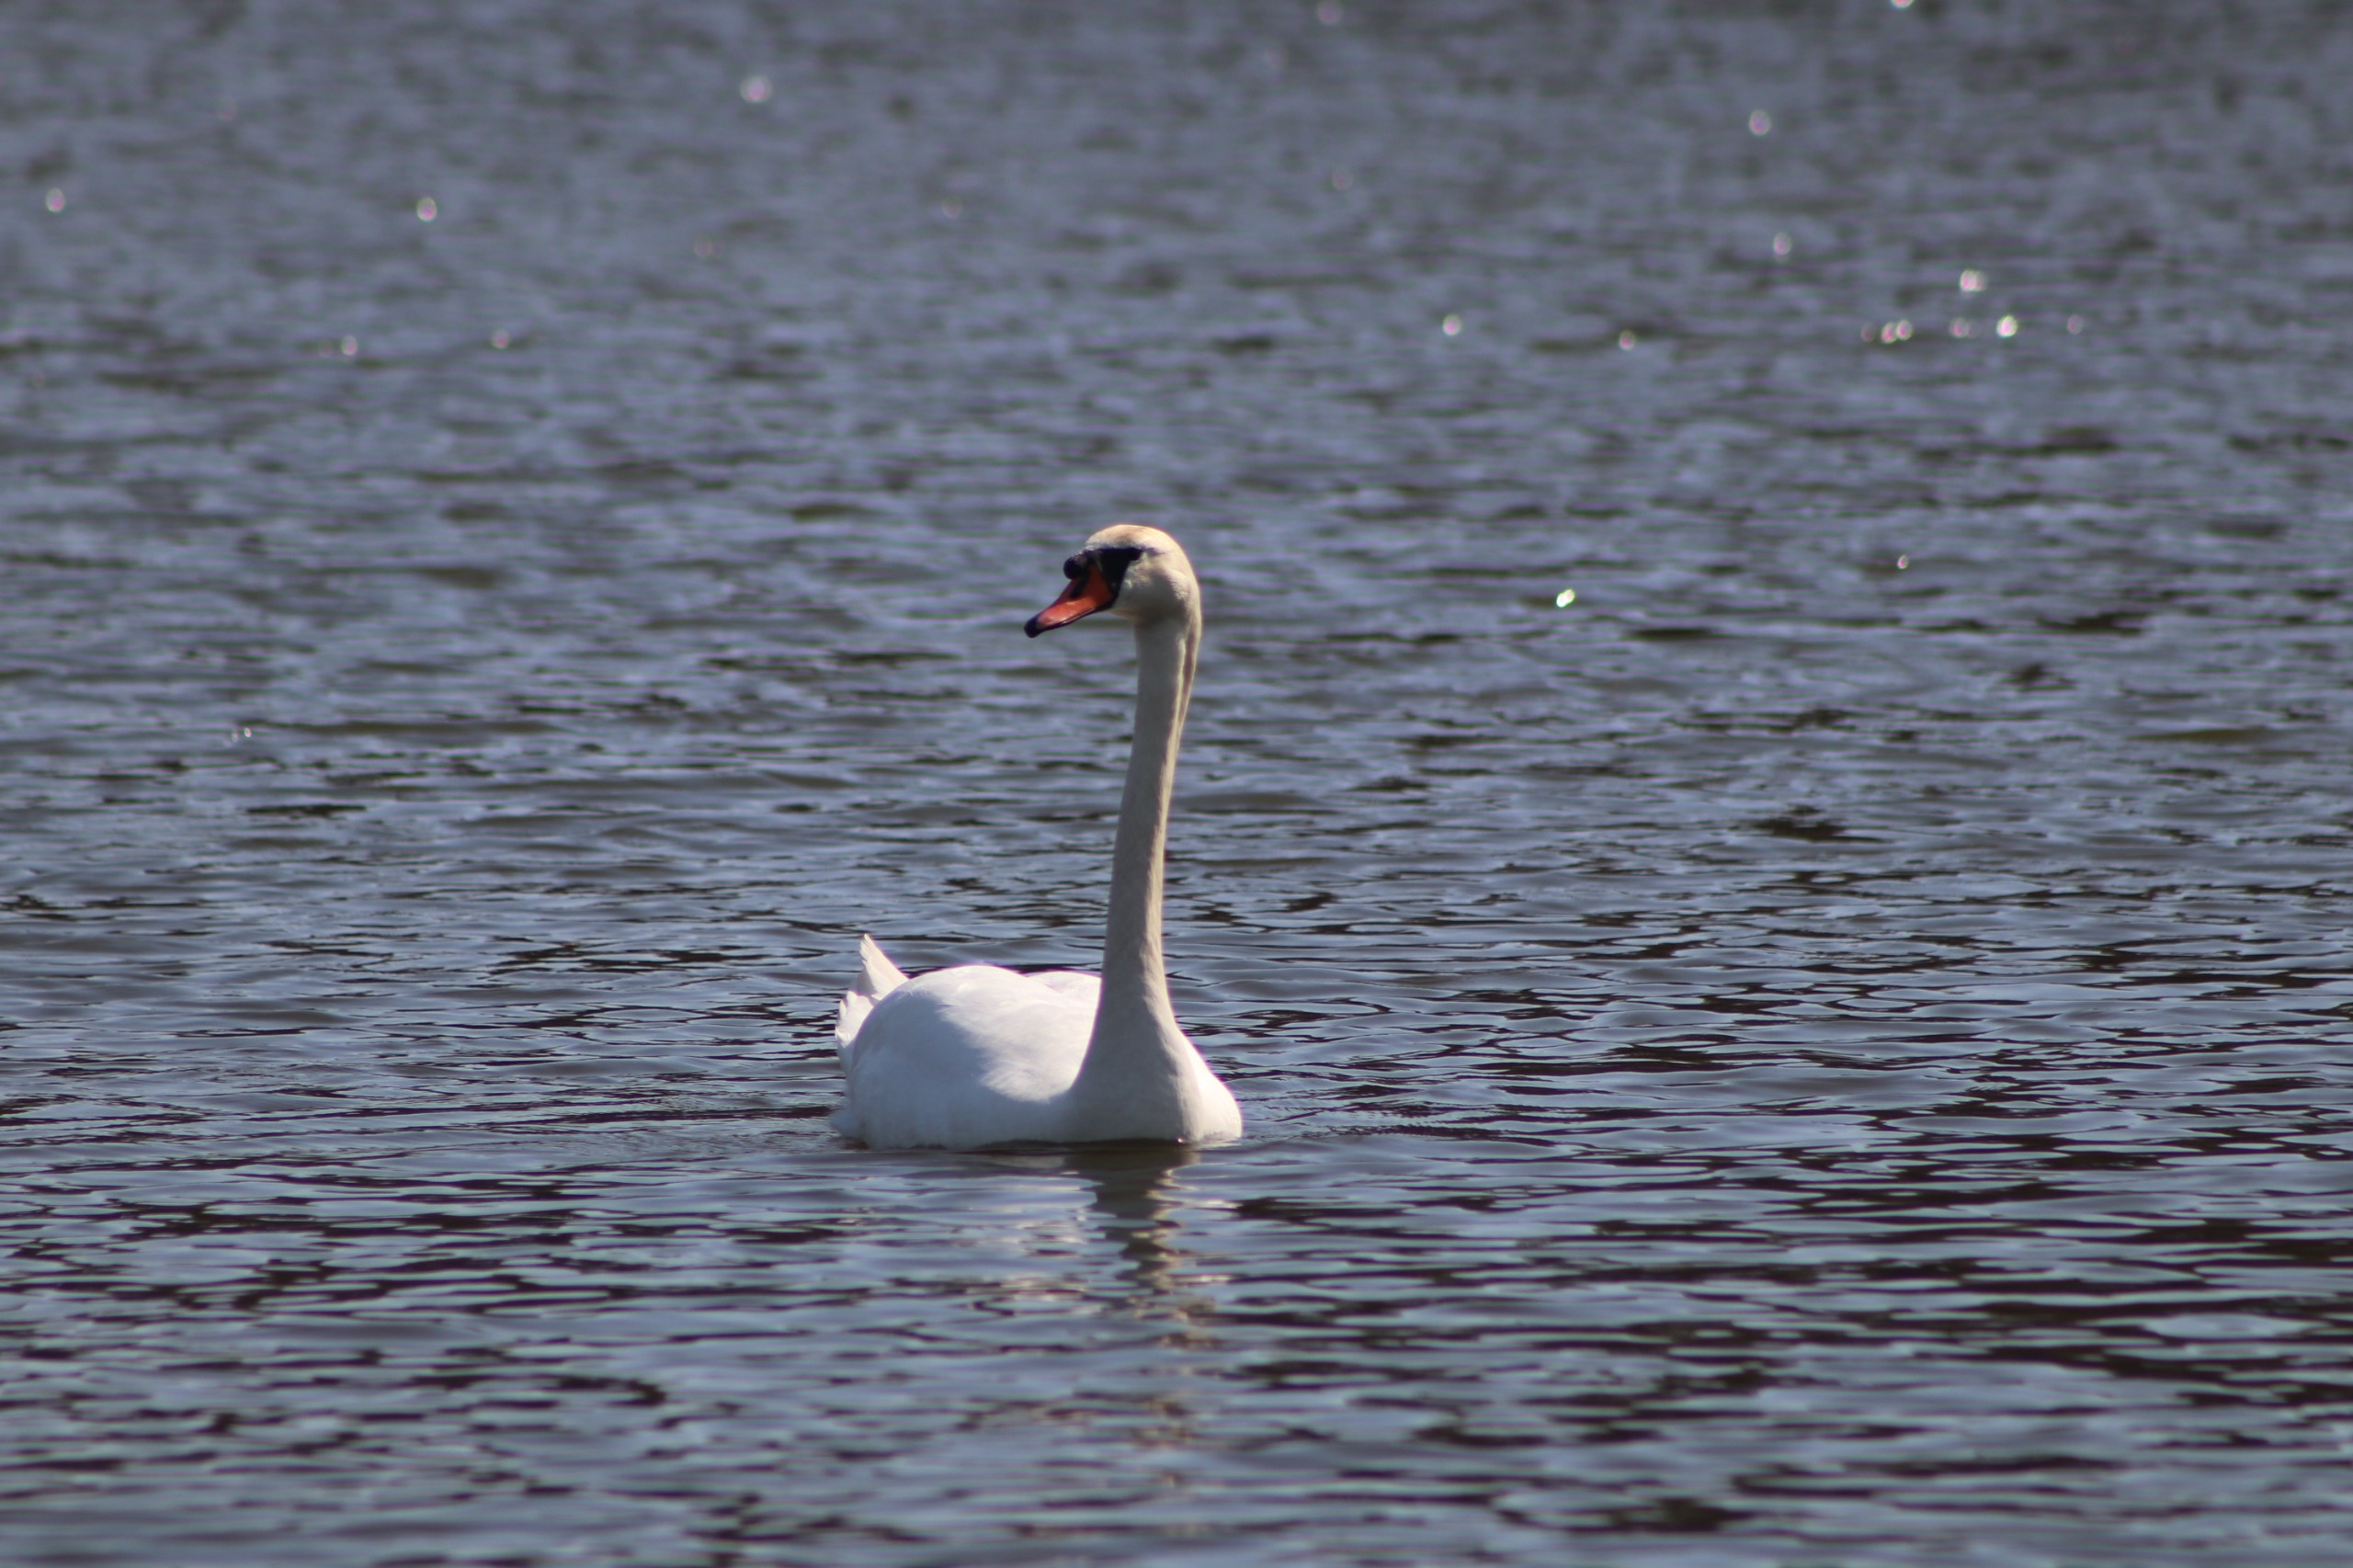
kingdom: Animalia
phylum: Chordata
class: Aves
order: Anseriformes
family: Anatidae
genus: Cygnus
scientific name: Cygnus olor
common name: Knopsvane
